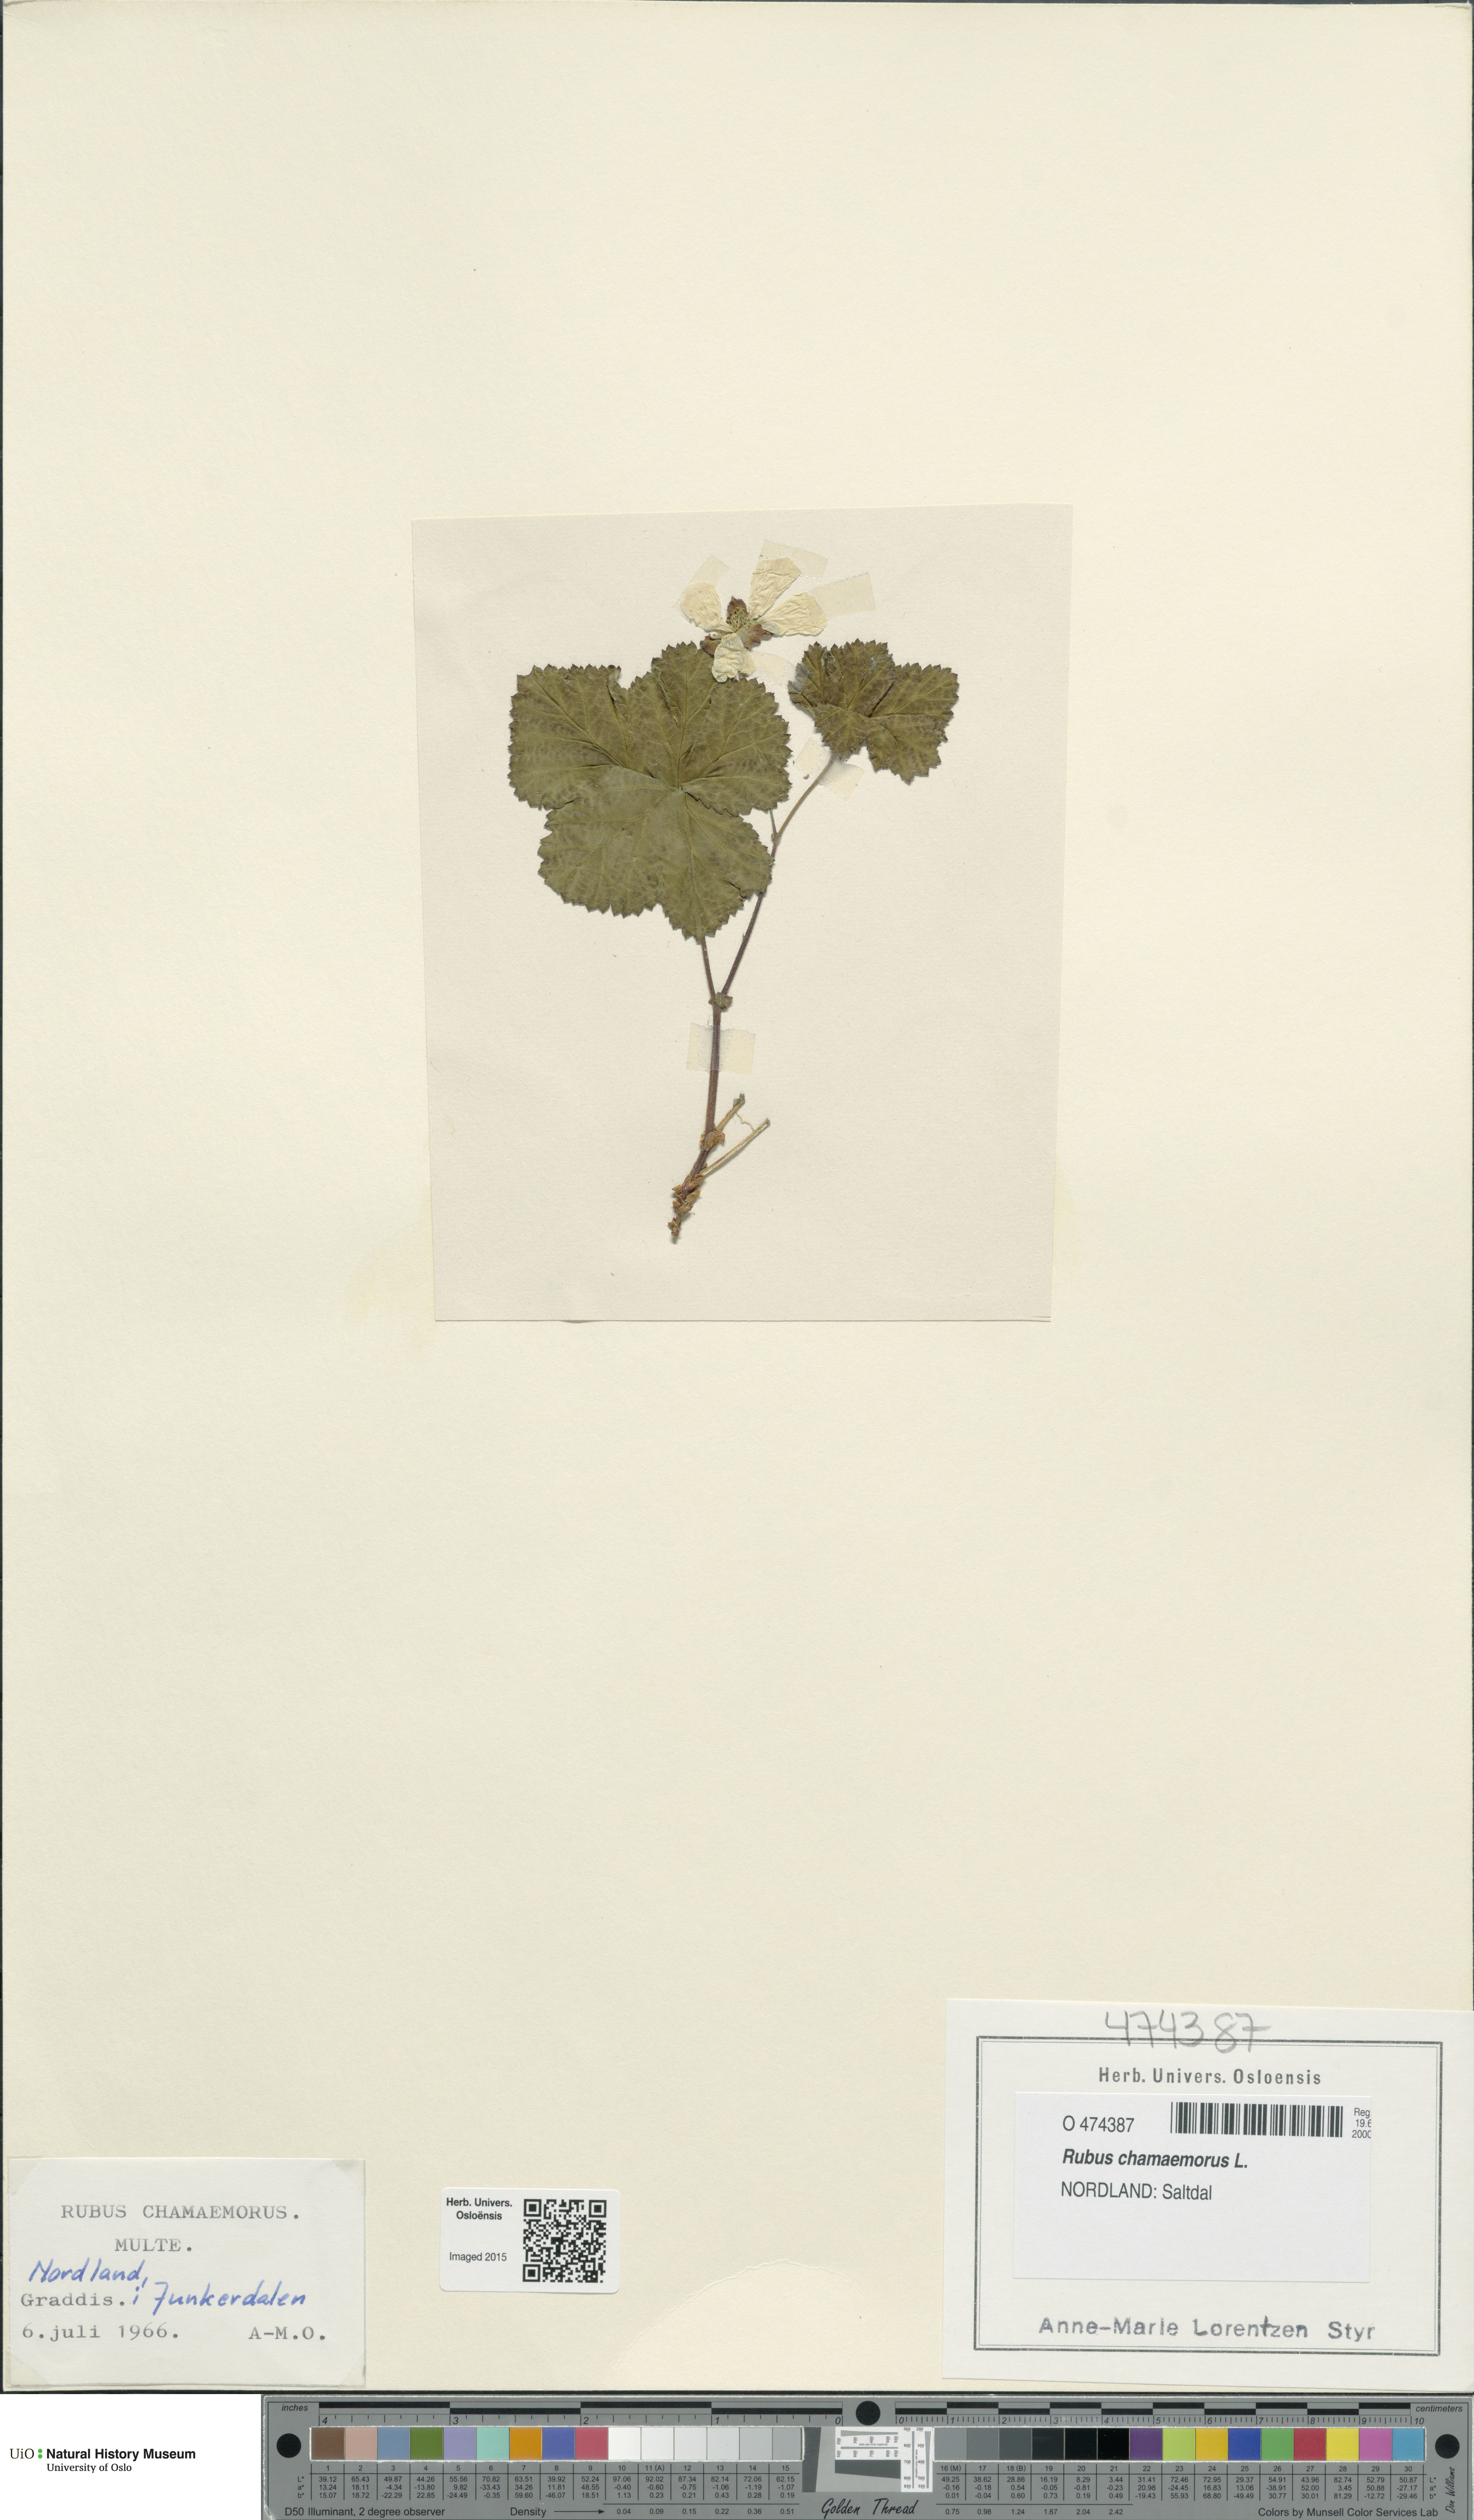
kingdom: Plantae
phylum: Tracheophyta
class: Magnoliopsida
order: Rosales
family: Rosaceae
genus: Rubus
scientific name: Rubus chamaemorus
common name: Cloudberry
